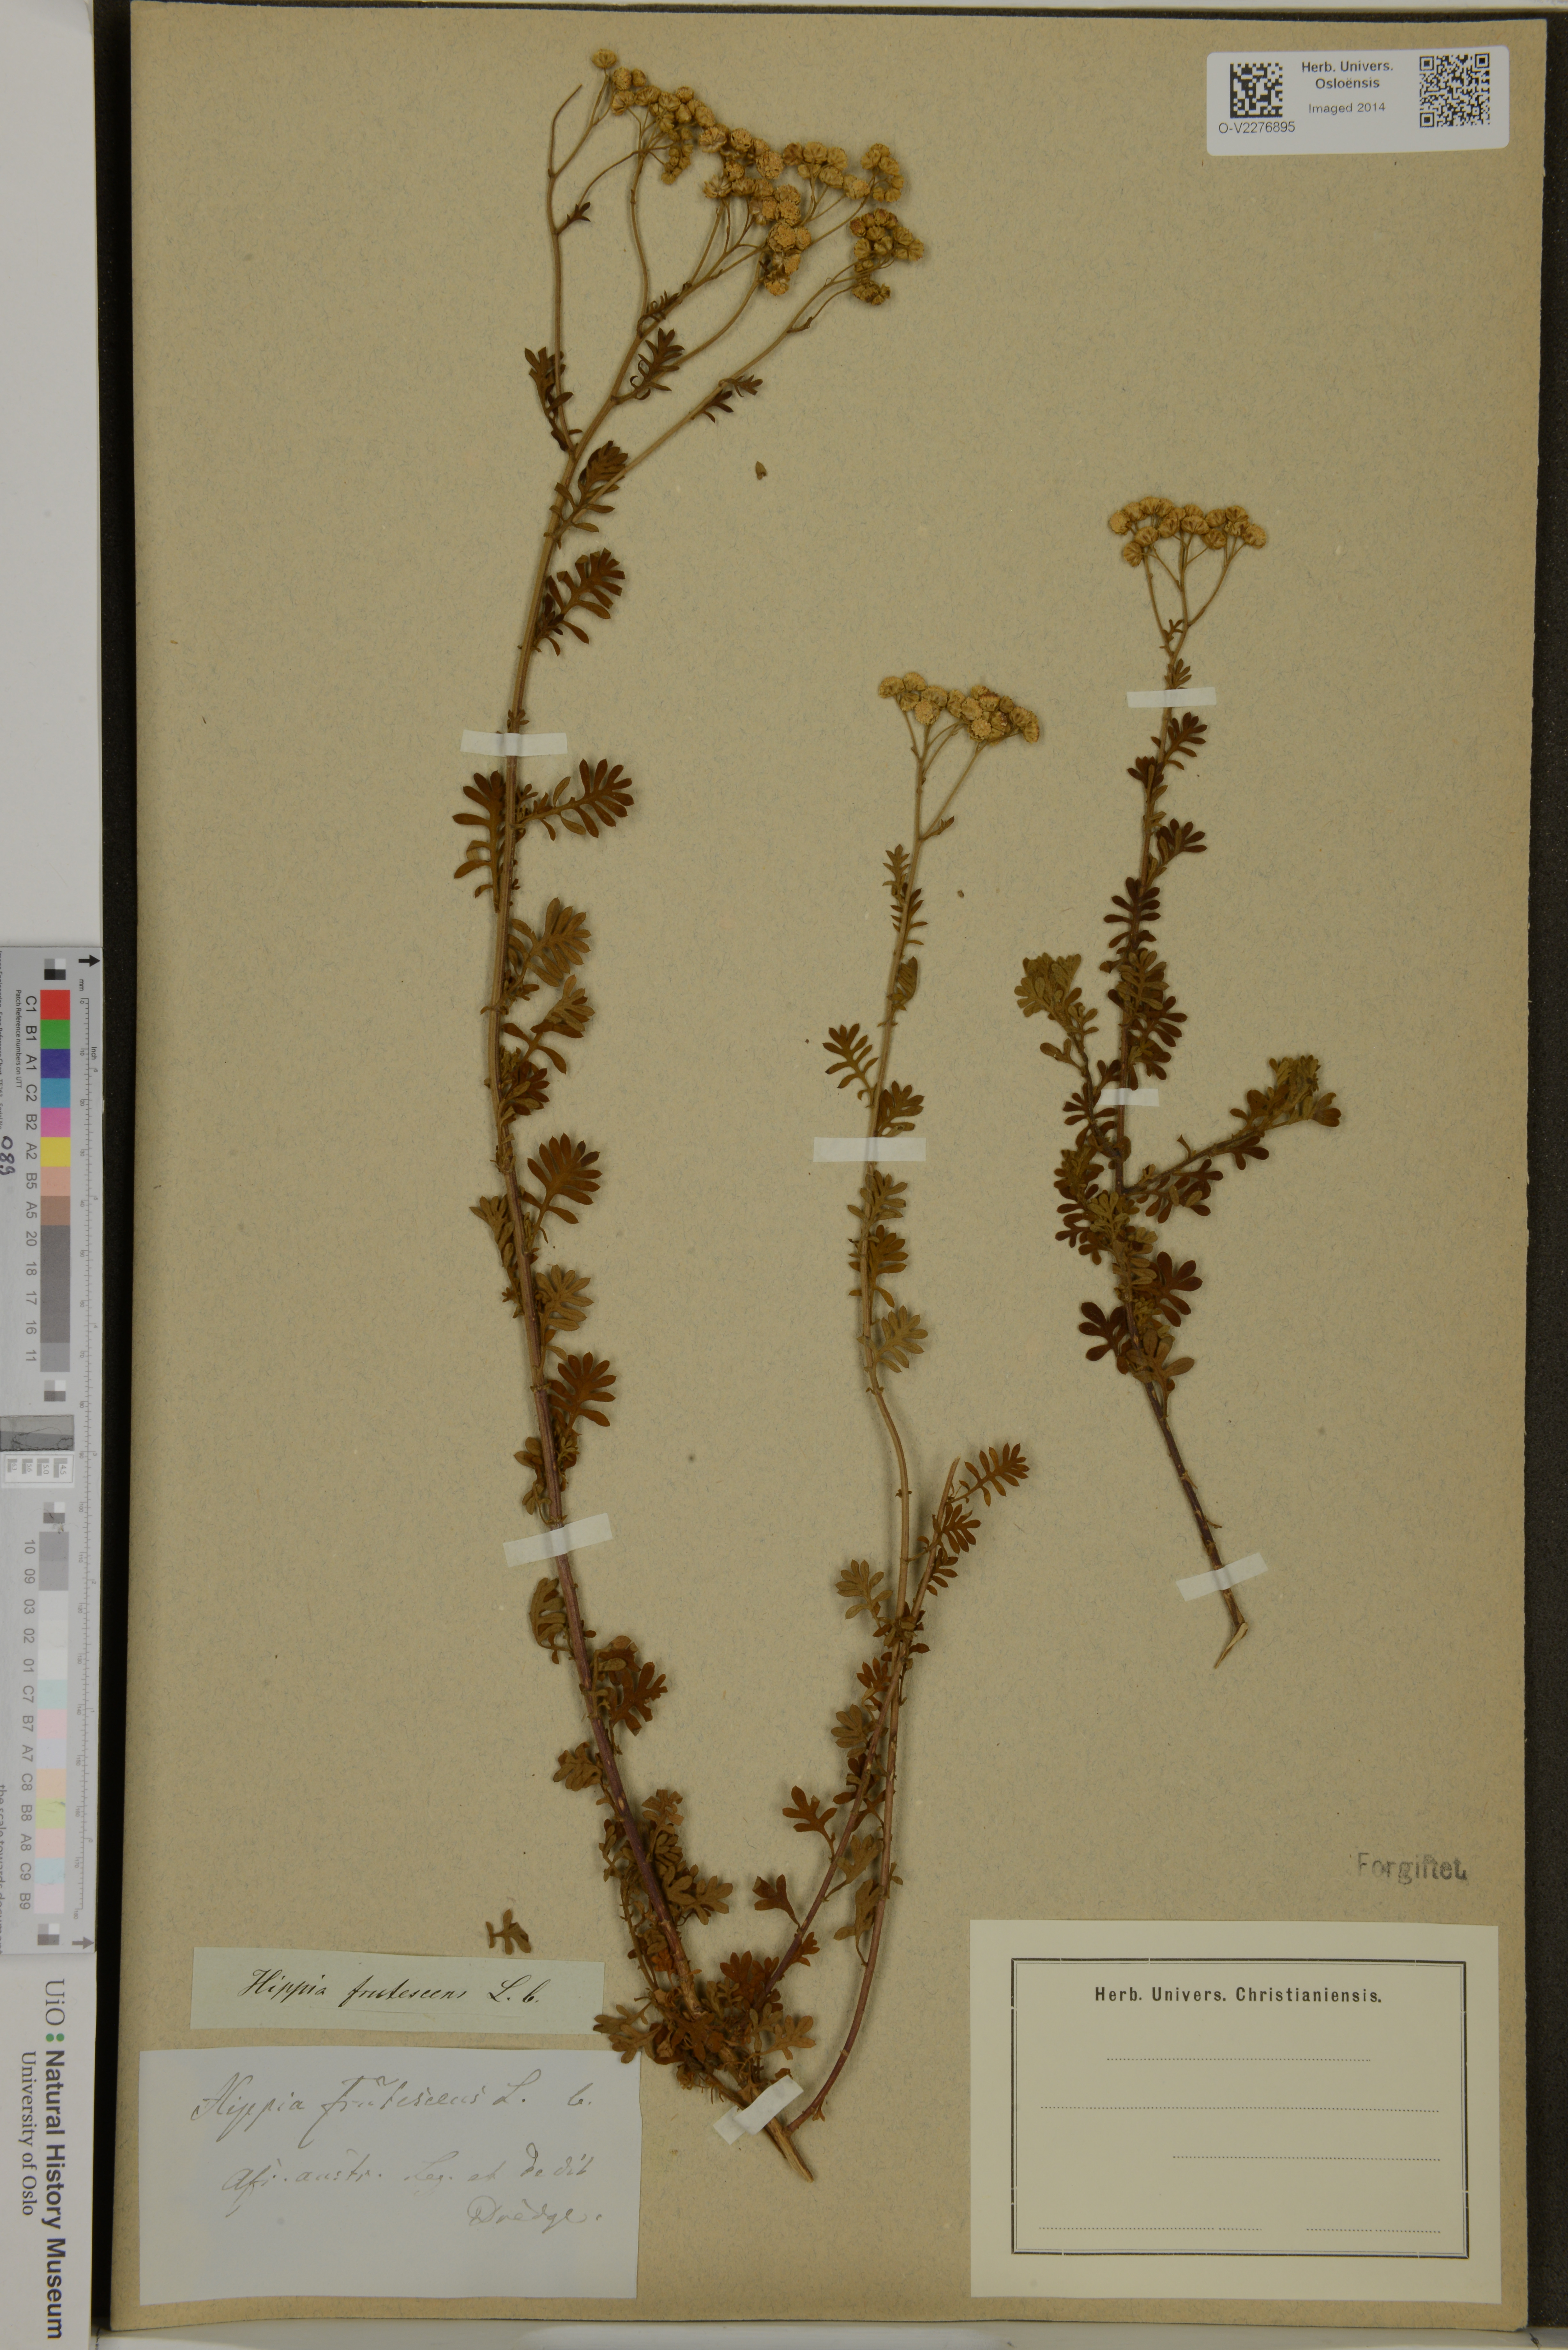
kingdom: Plantae
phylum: Tracheophyta
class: Magnoliopsida
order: Asterales
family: Asteraceae
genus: Hippia
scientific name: Hippia frutescens
